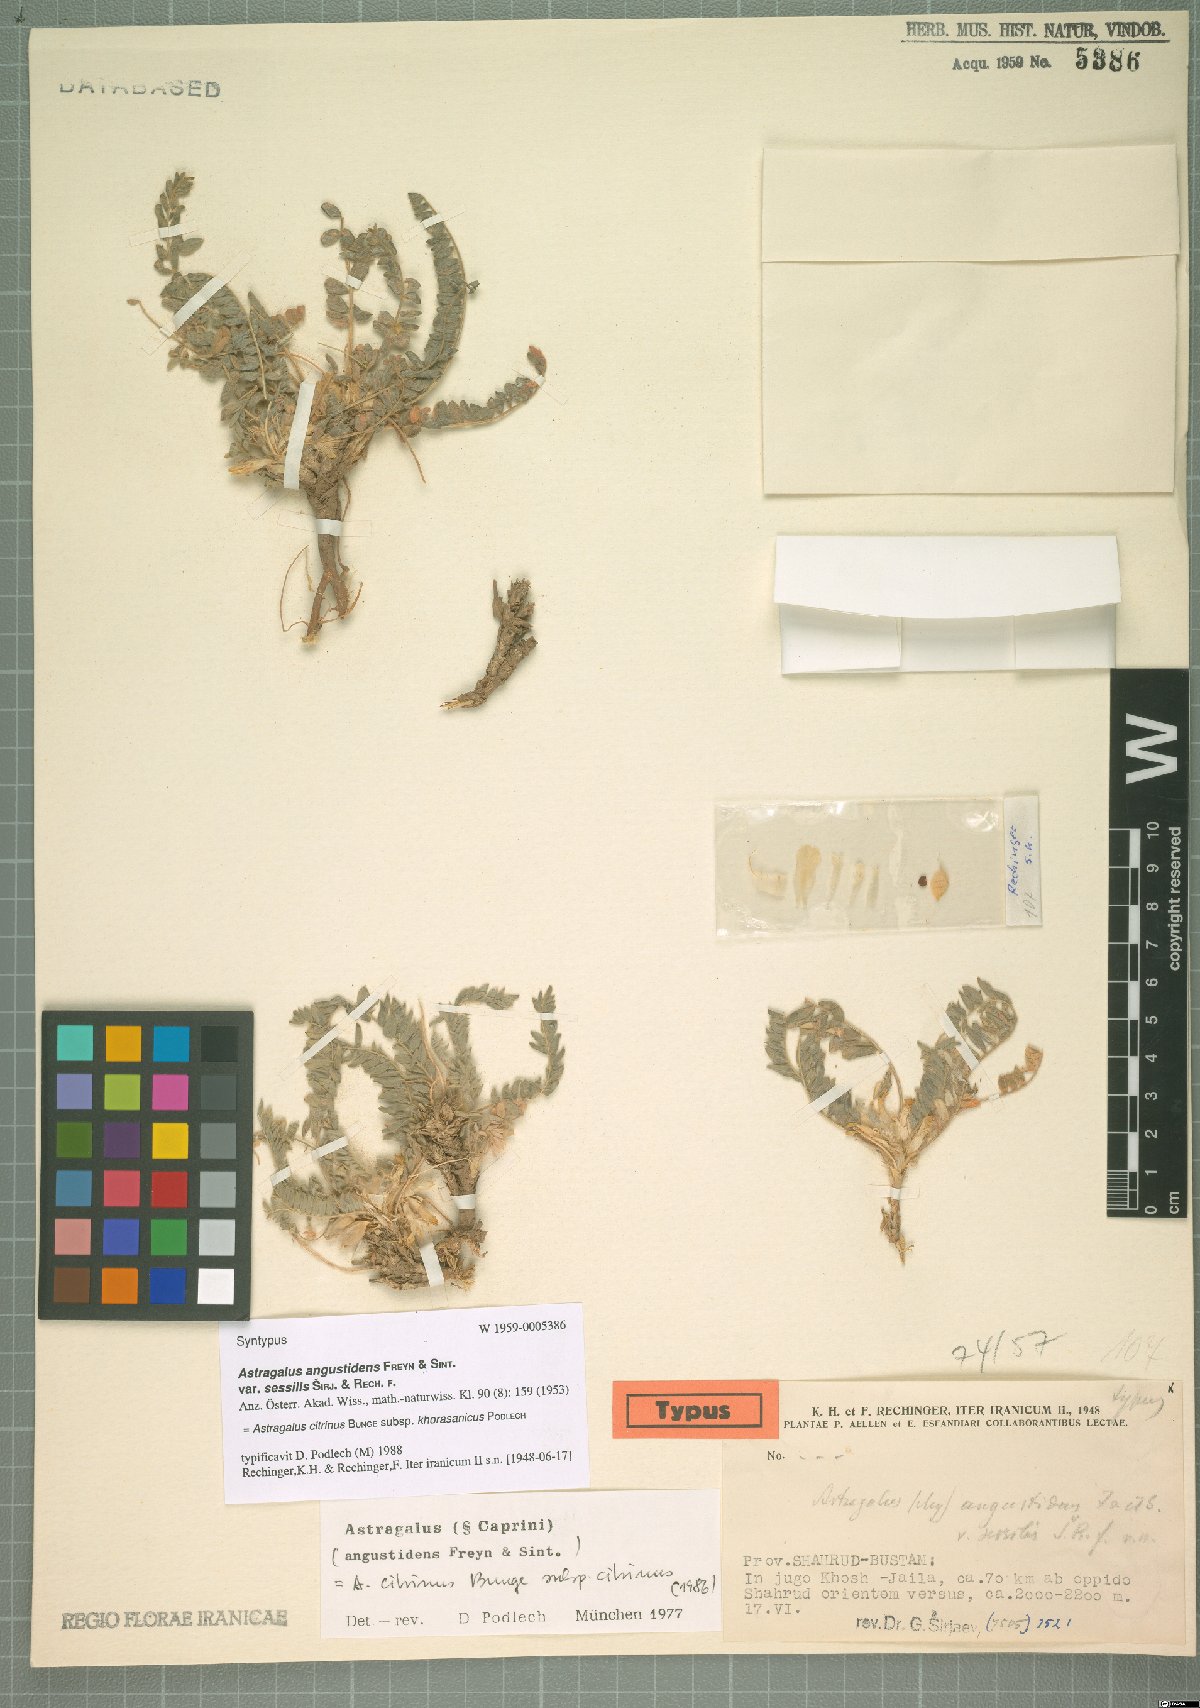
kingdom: Plantae
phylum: Tracheophyta
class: Magnoliopsida
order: Fabales
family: Fabaceae
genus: Astragalus
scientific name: Astragalus citrinus
